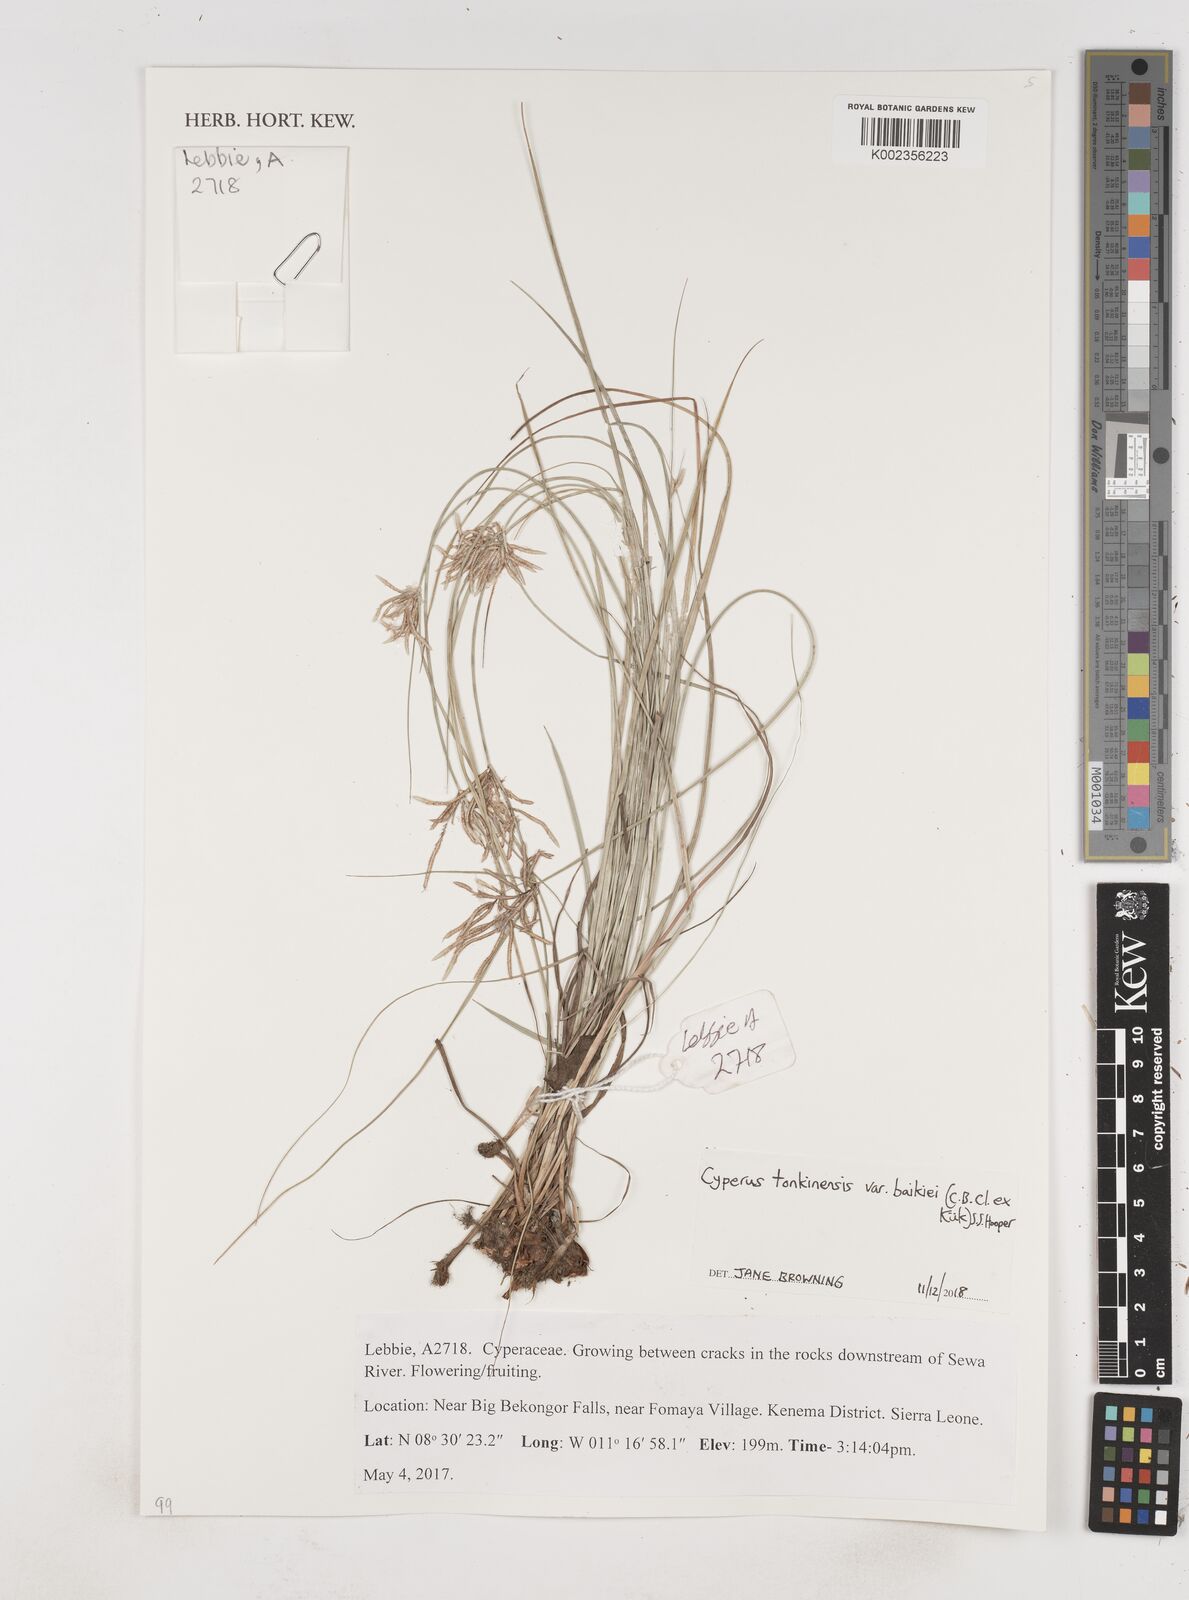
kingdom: Plantae
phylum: Tracheophyta
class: Liliopsida
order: Poales
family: Cyperaceae
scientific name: Cyperaceae
